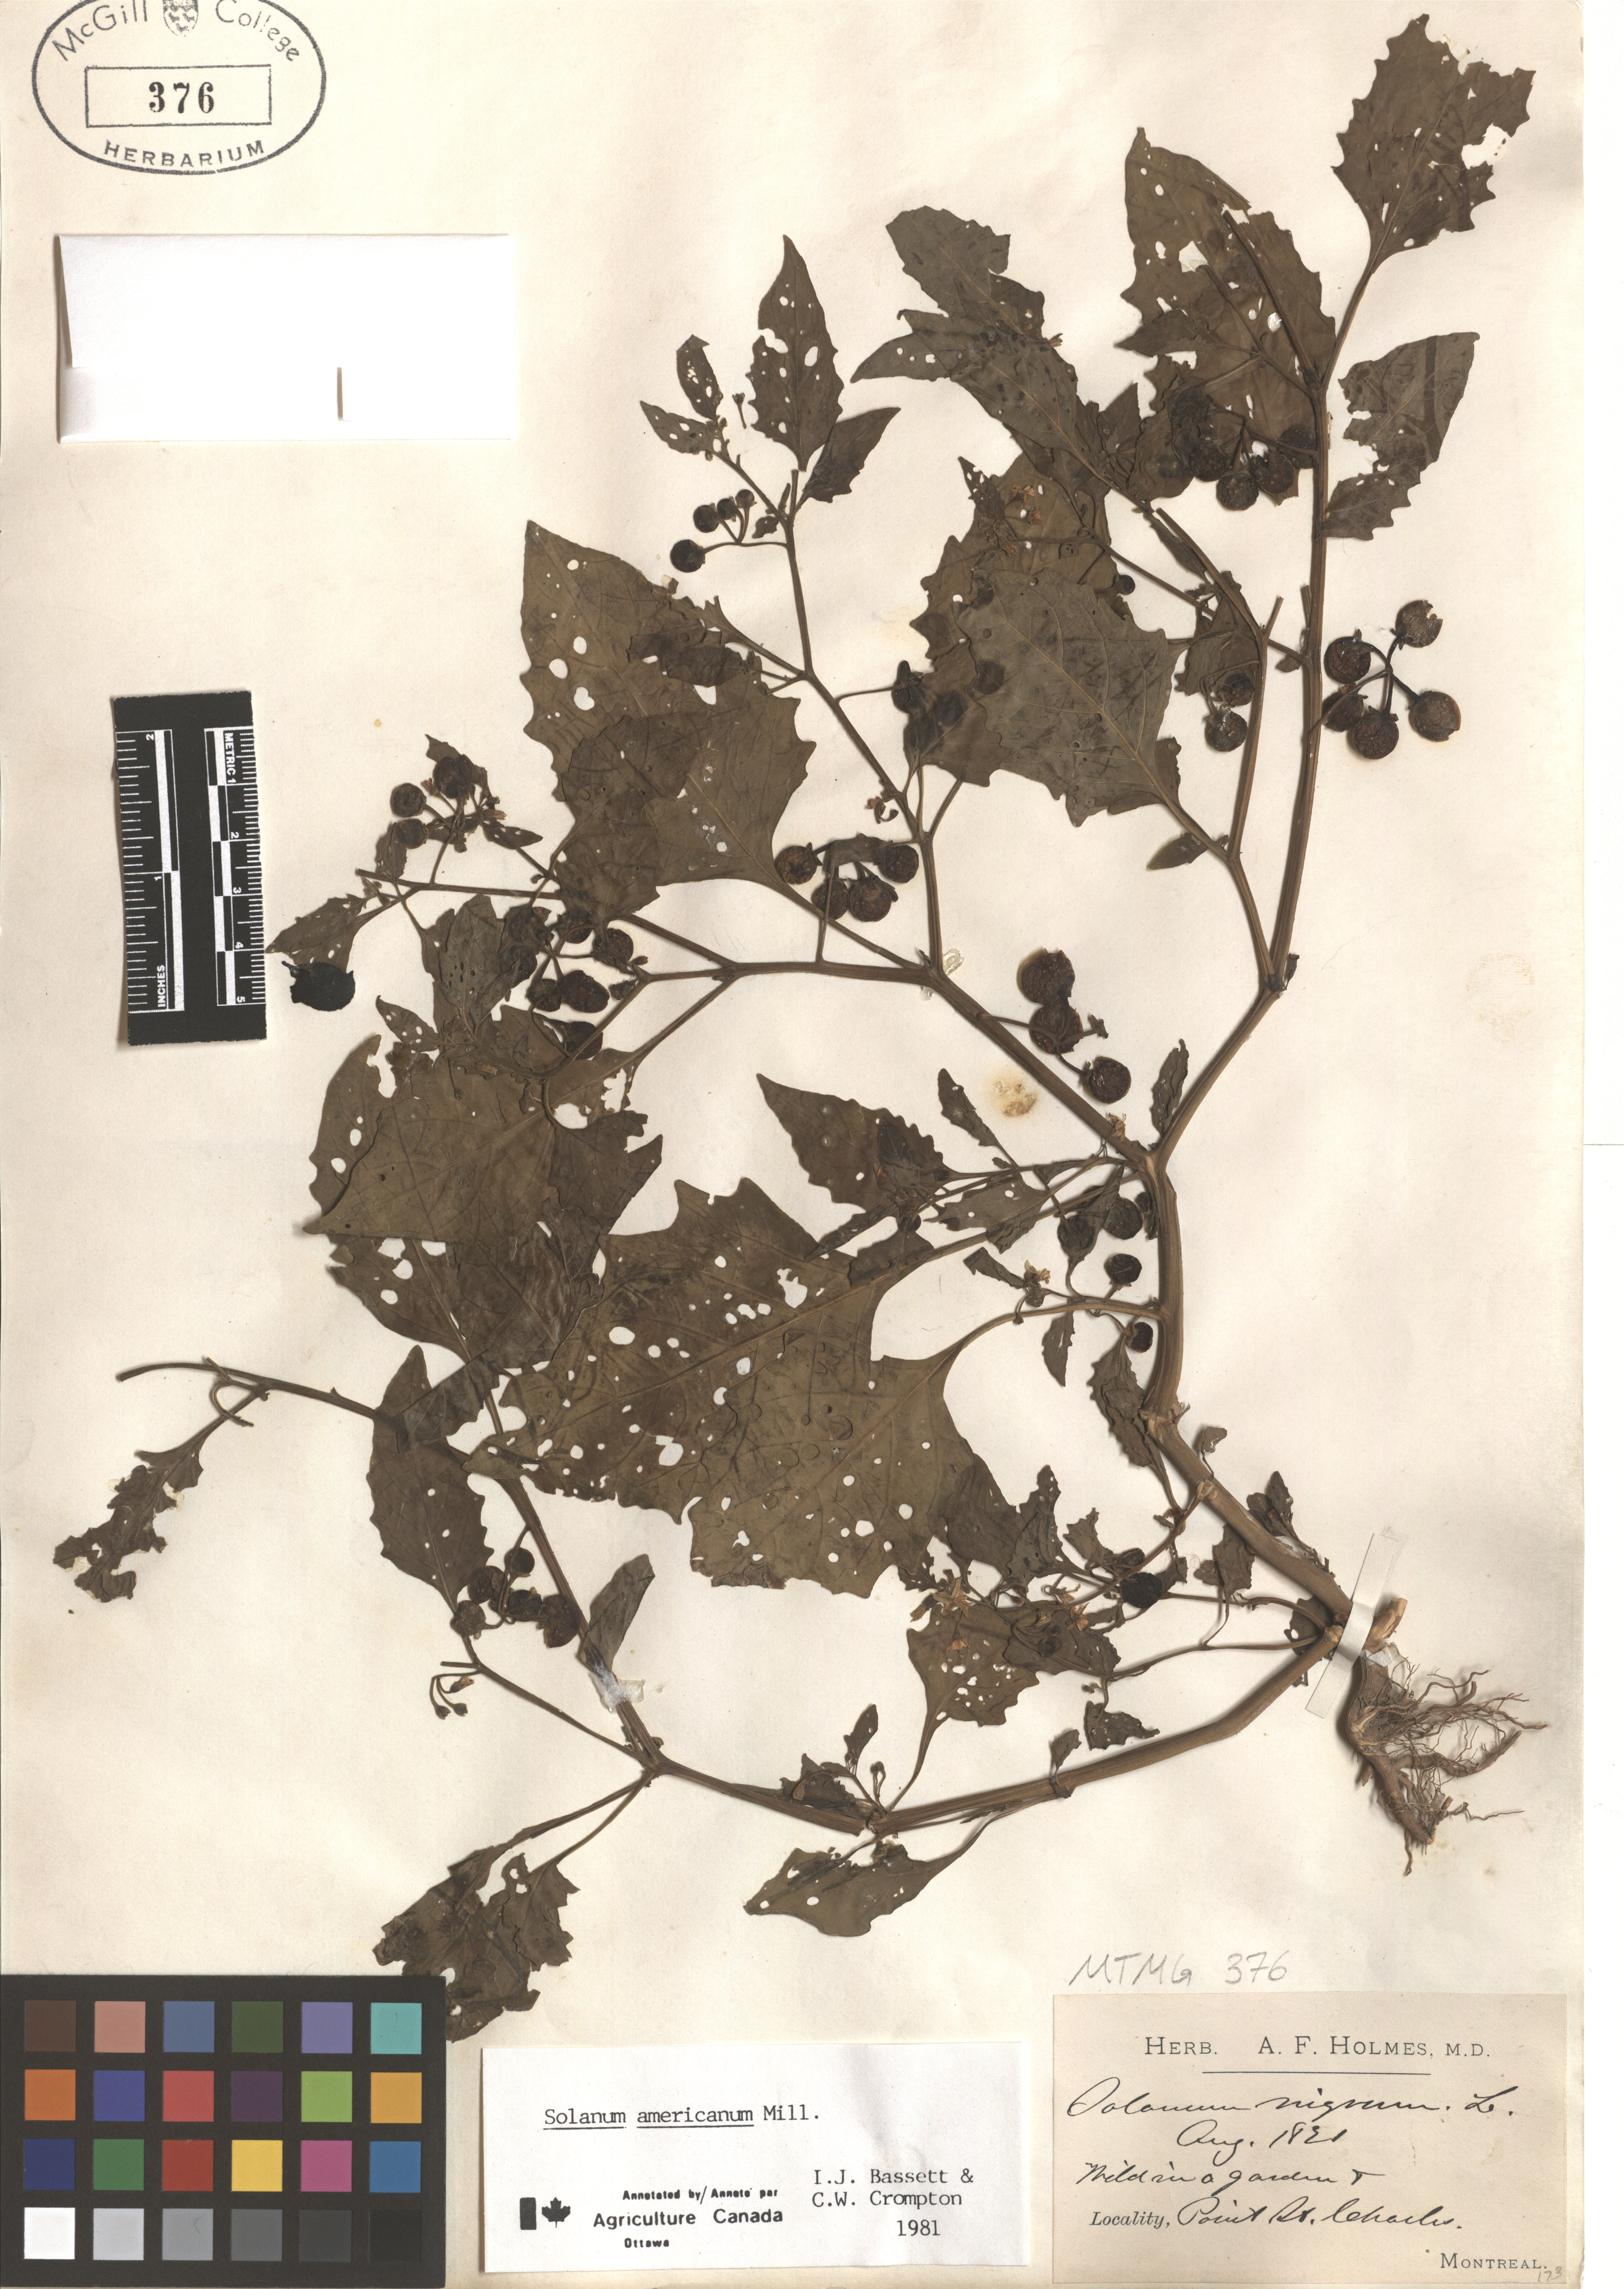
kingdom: Plantae
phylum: Tracheophyta
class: Magnoliopsida
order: Solanales
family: Solanaceae
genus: Solanum
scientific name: Solanum americanum
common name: American black nightshade
